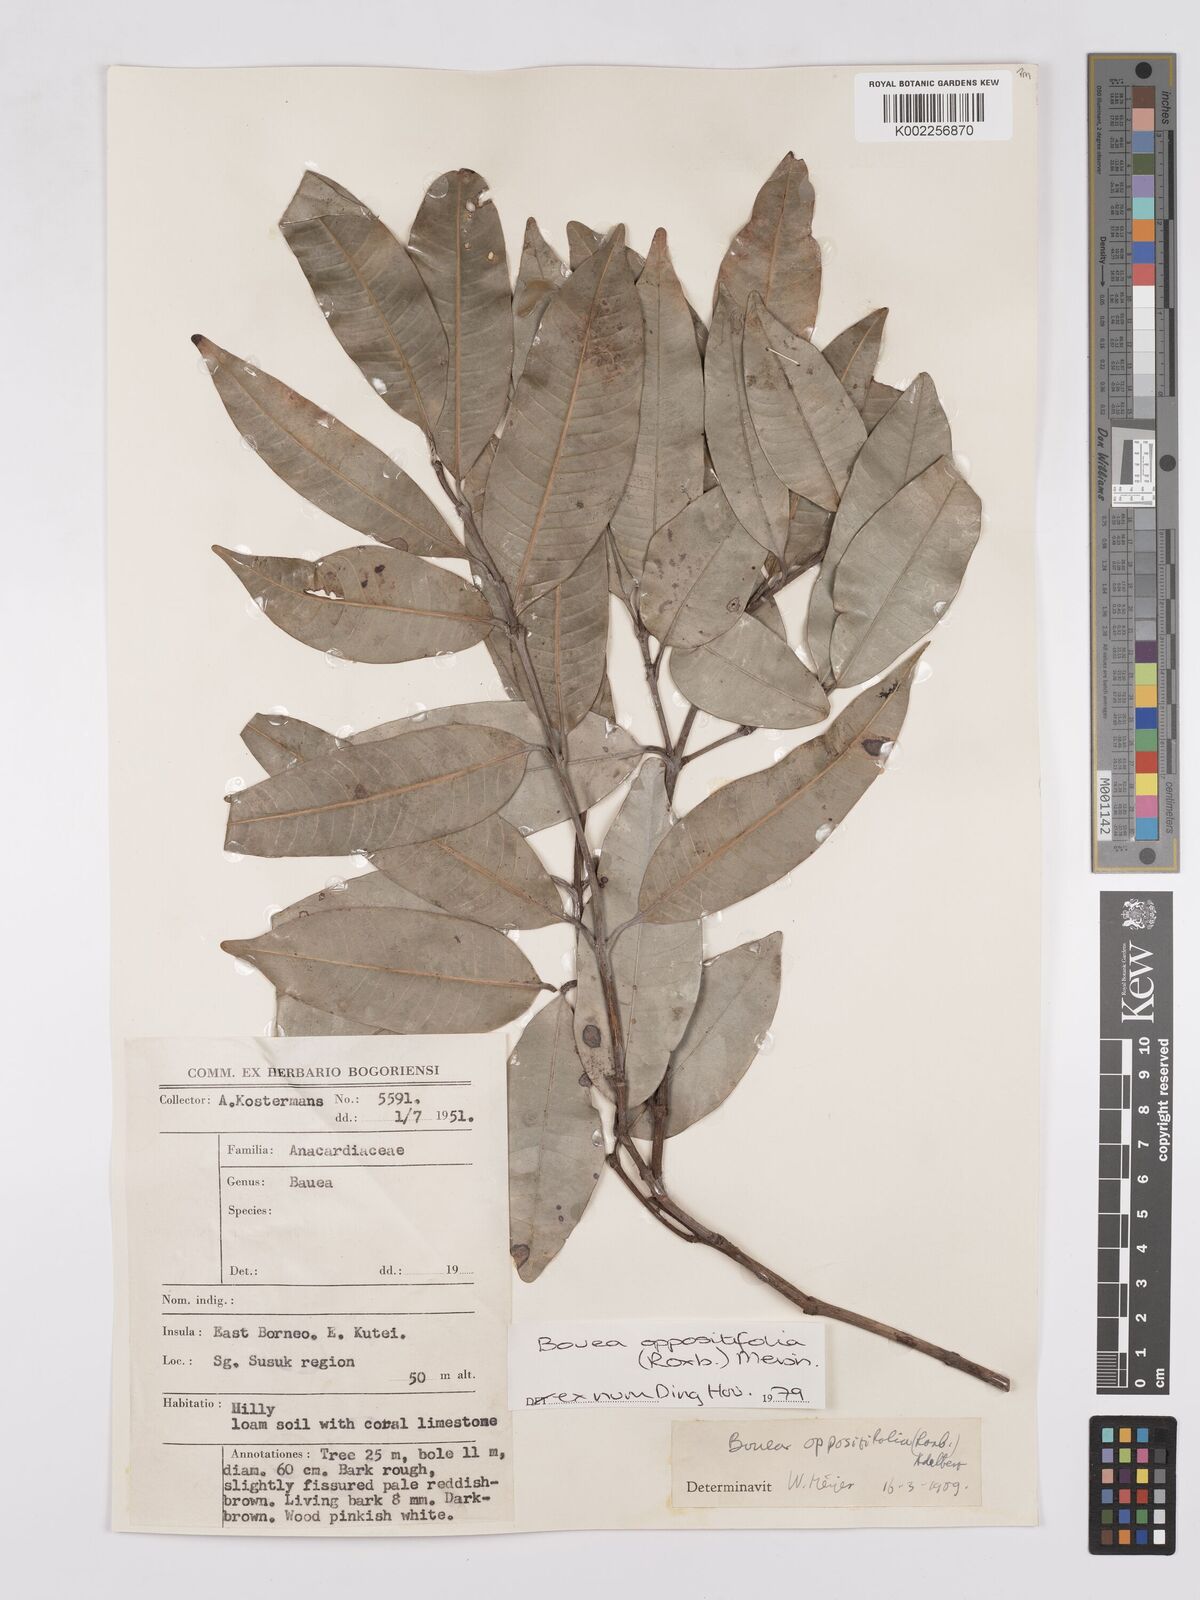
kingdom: Plantae
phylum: Tracheophyta
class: Magnoliopsida
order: Sapindales
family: Anacardiaceae
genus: Bouea
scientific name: Bouea oppositifolia
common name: Narrow-leaved kundang
